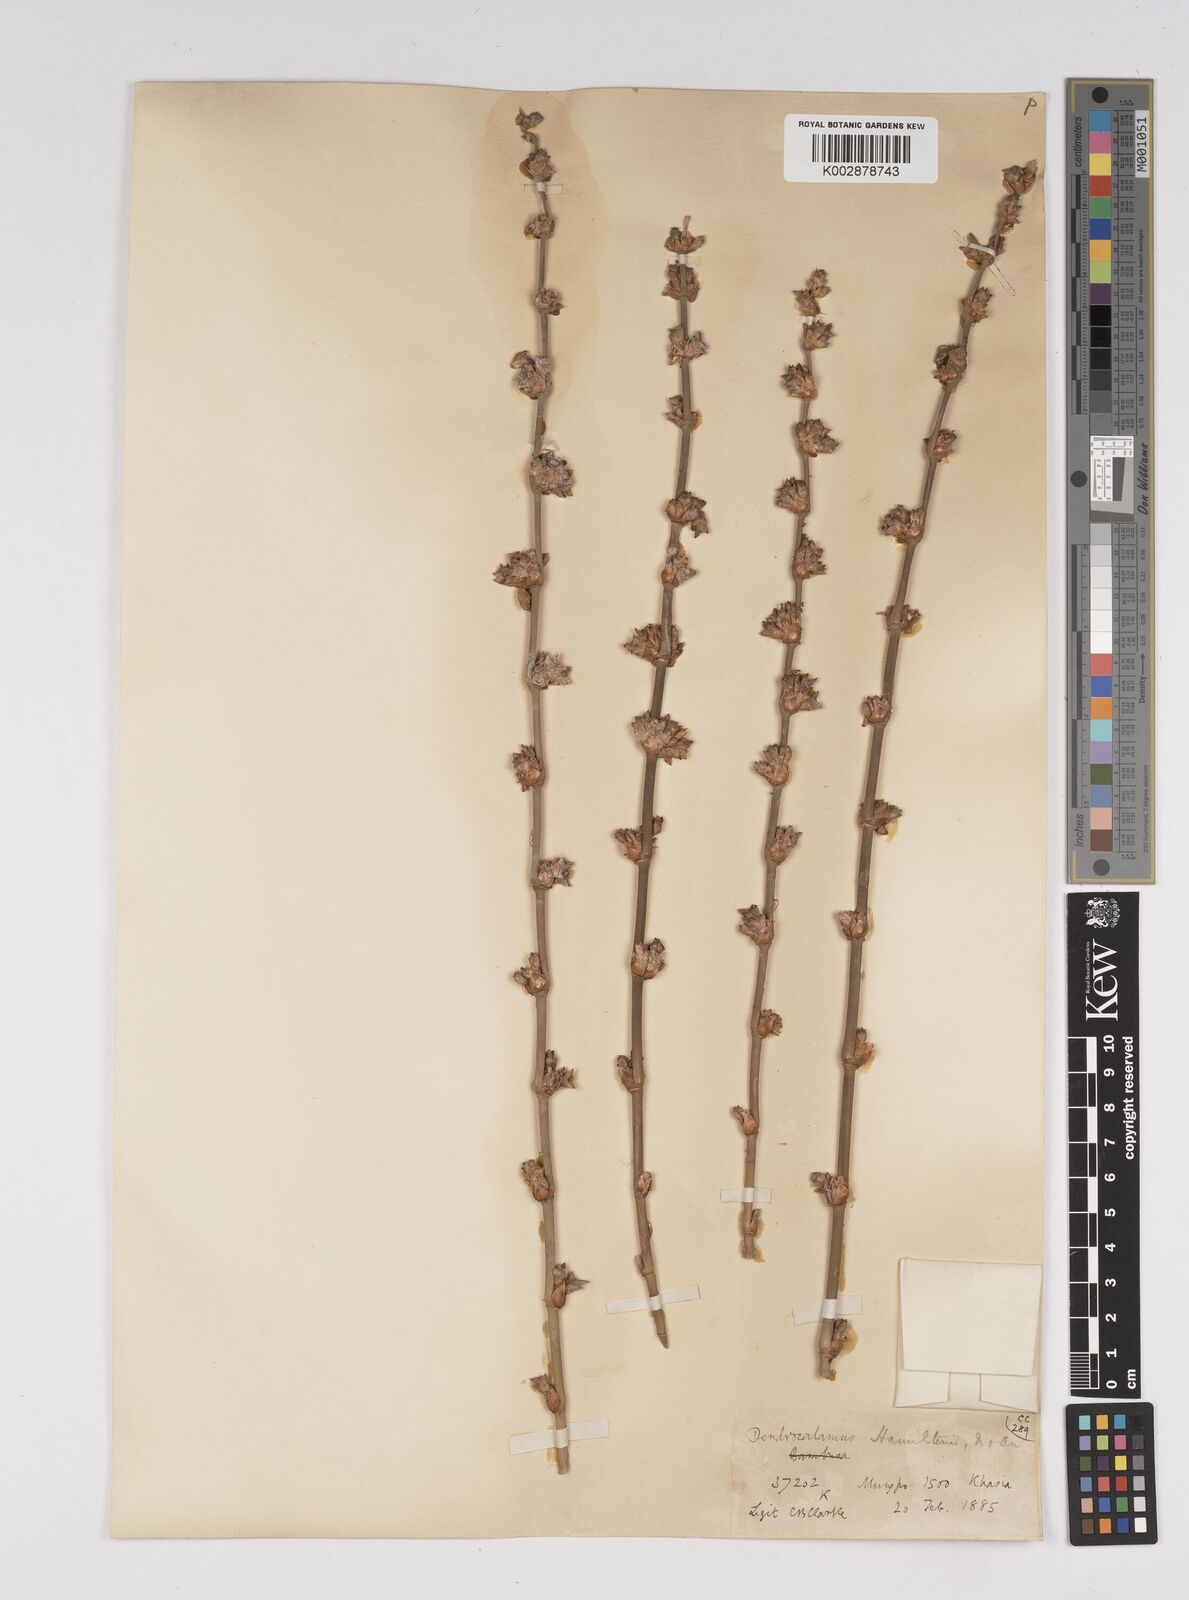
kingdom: Plantae
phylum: Tracheophyta
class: Liliopsida
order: Poales
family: Poaceae
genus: Dendrocalamus
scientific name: Dendrocalamus hamiltonii
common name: Tama bamboo
